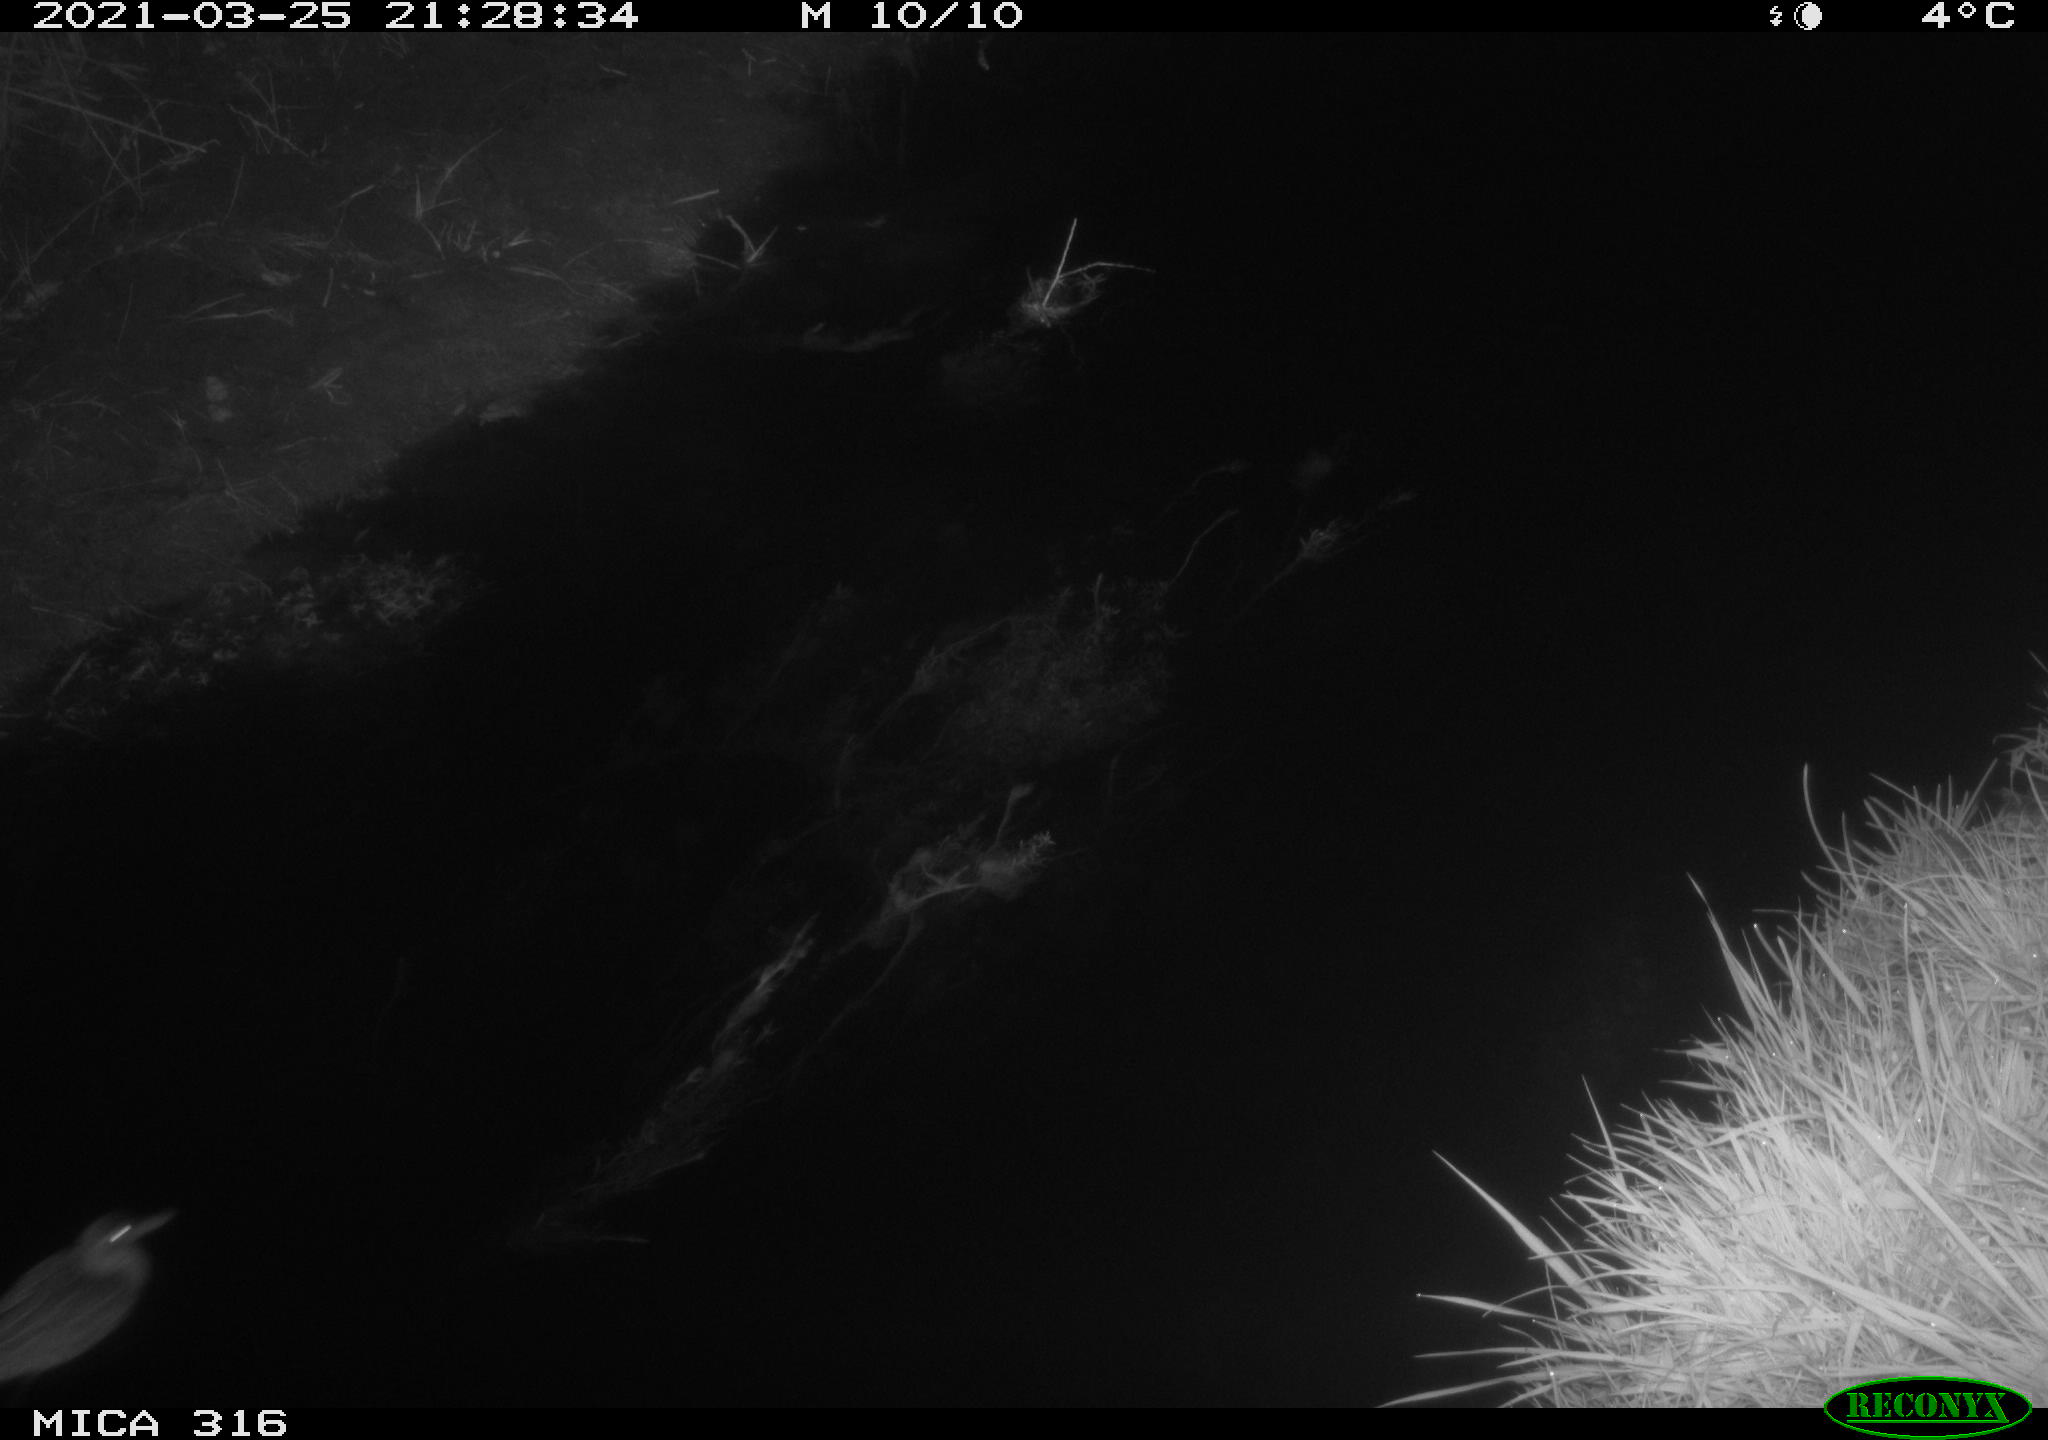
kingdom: Animalia
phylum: Chordata
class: Aves
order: Anseriformes
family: Anatidae
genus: Anas
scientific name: Anas platyrhynchos
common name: Mallard
